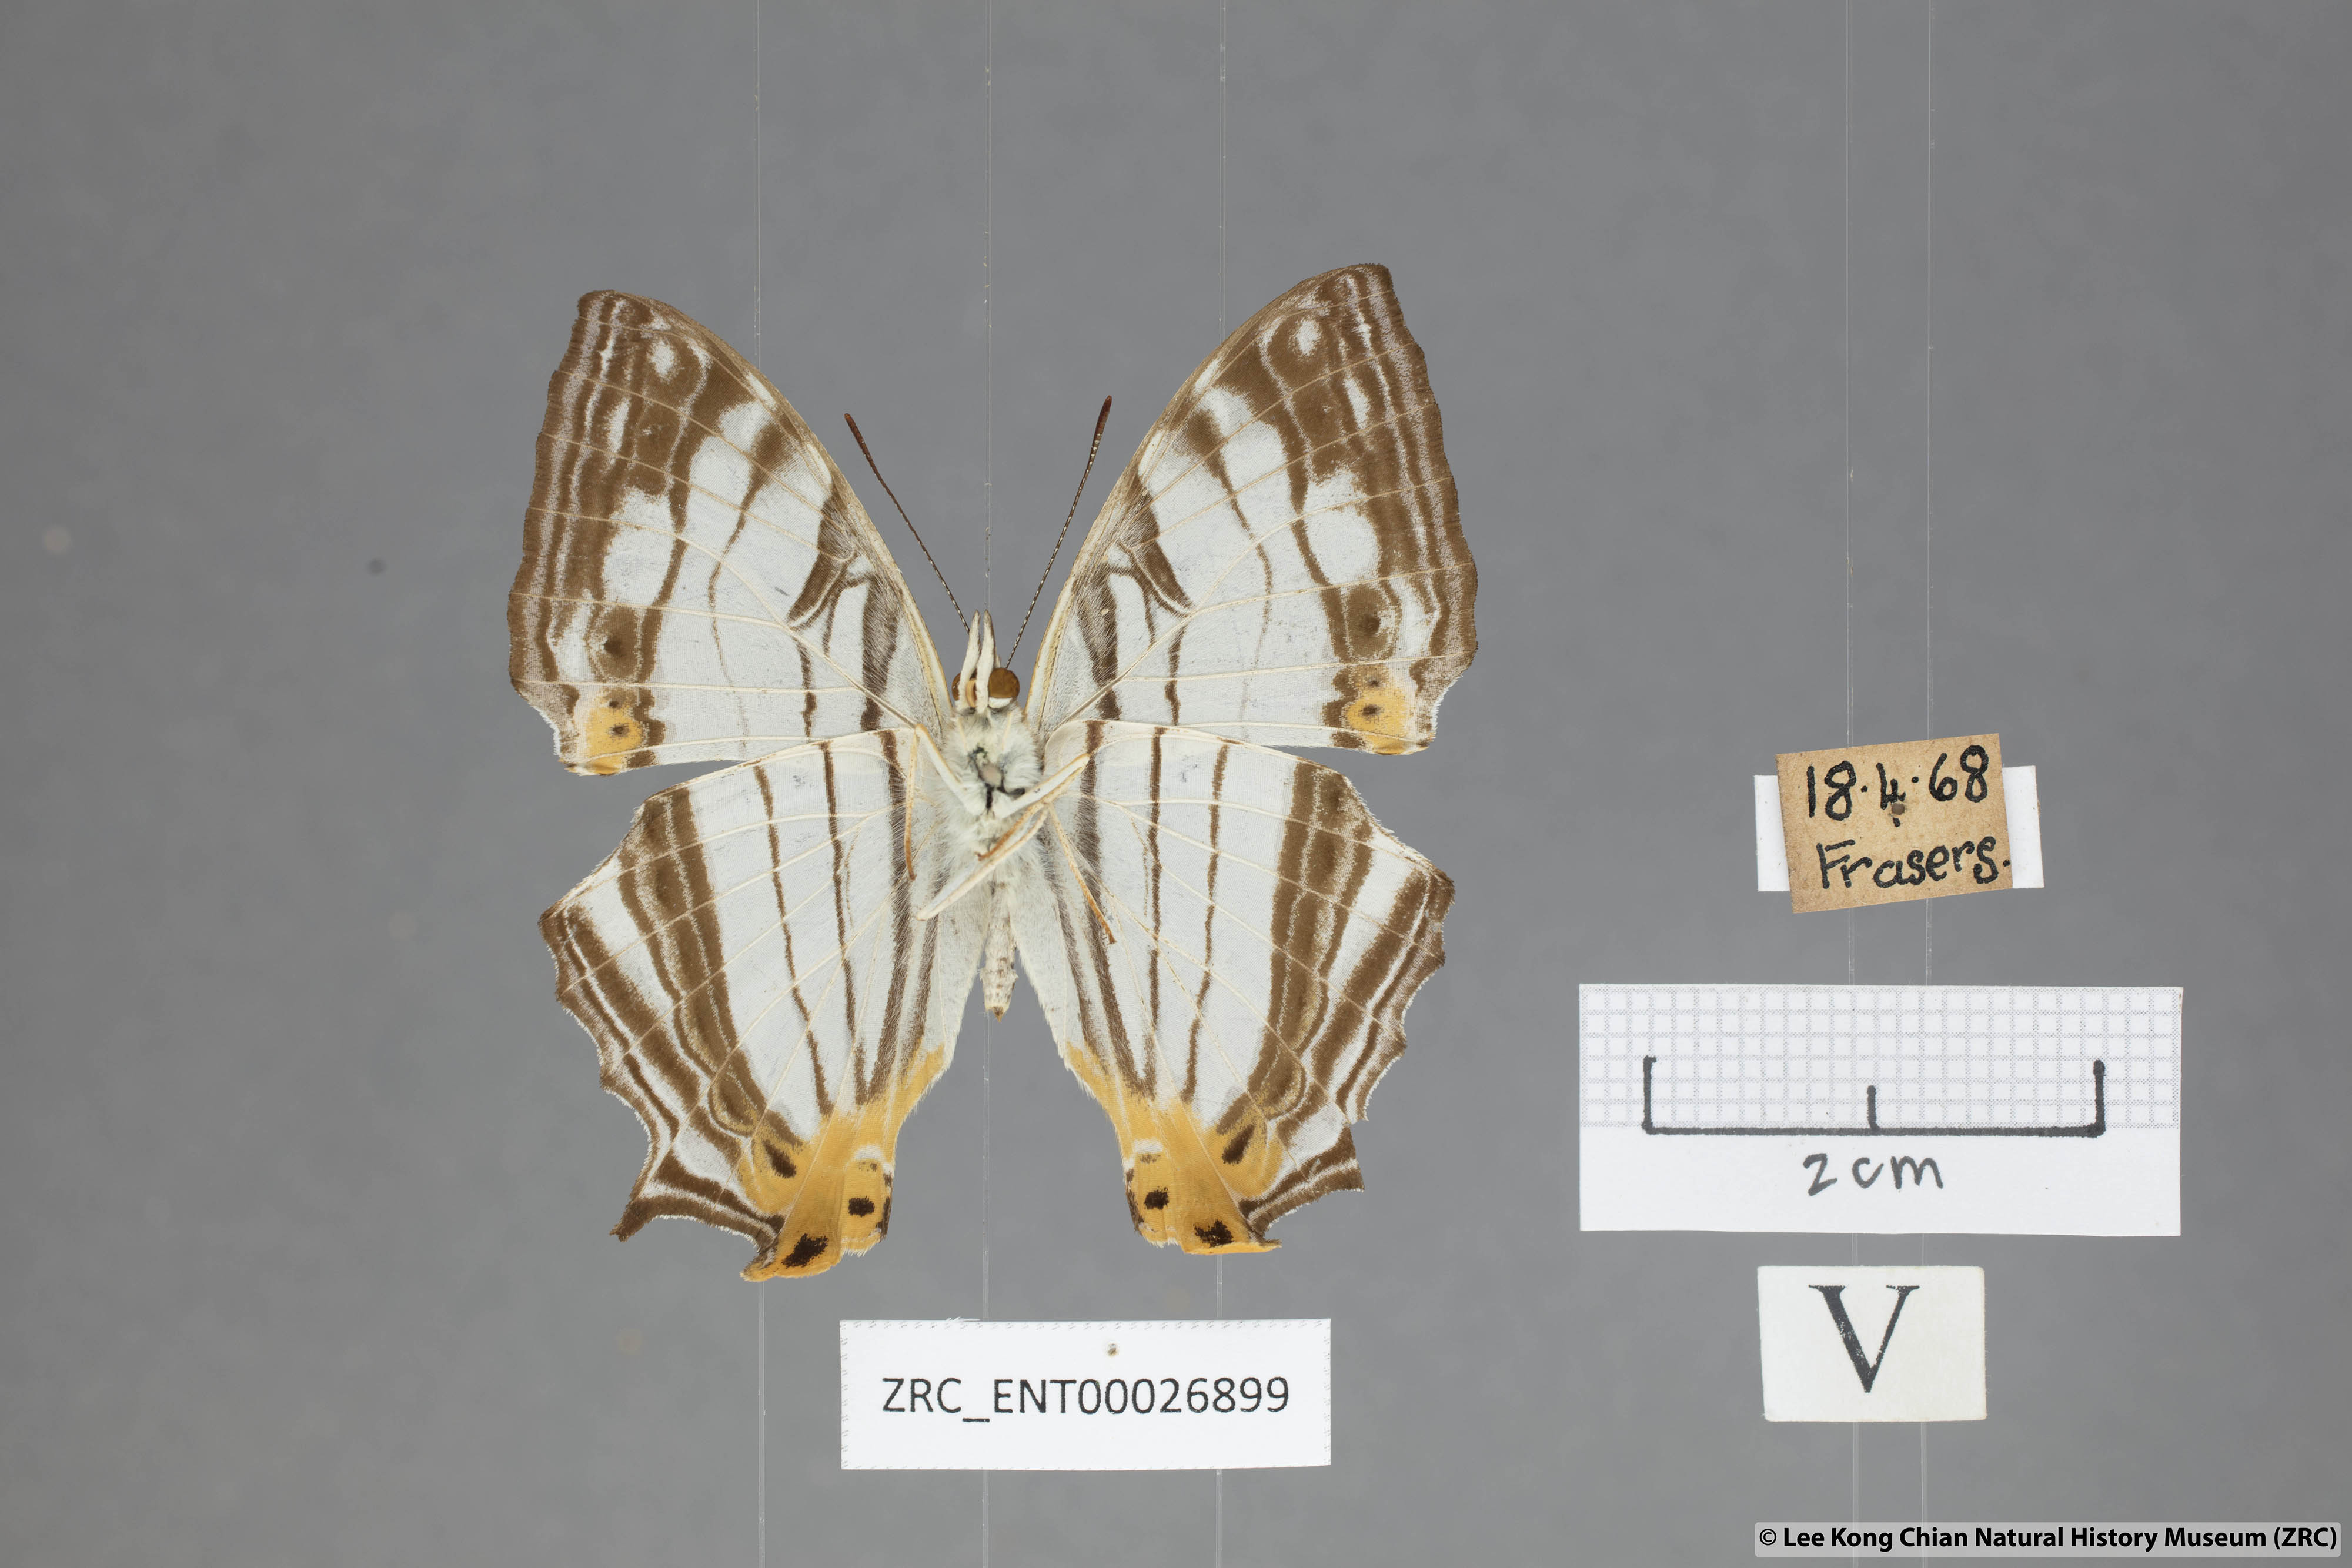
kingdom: Animalia
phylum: Arthropoda
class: Insecta
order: Lepidoptera
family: Nymphalidae
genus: Cyrestis
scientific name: Cyrestis maenalis
